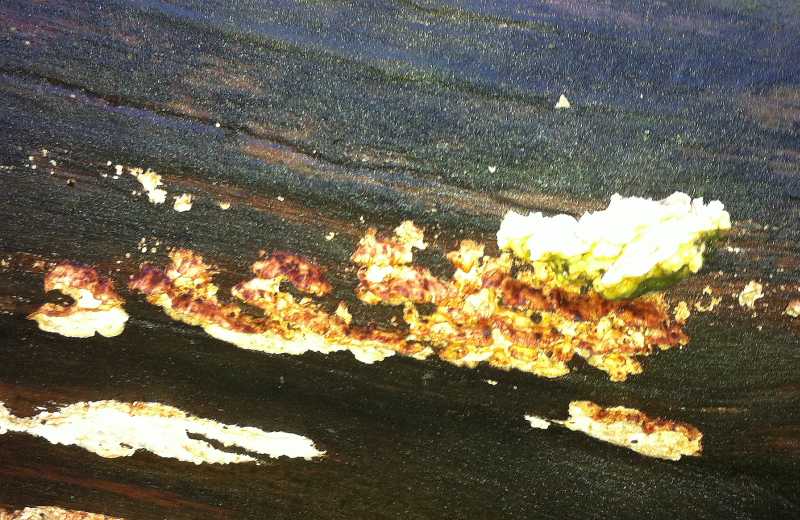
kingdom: Fungi
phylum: Basidiomycota
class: Agaricomycetes
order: Polyporales
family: Incrustoporiaceae
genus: Skeletocutis
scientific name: Skeletocutis carneogrisea
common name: rødgrå krystalporesvamp
